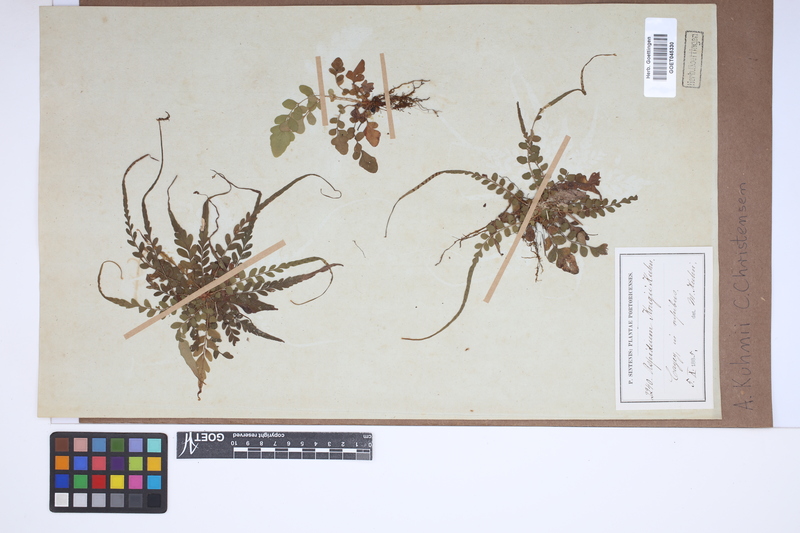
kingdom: Plantae
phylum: Tracheophyta
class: Polypodiopsida
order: Polypodiales
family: Tectariaceae
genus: Tectaria
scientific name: Tectaria barberi
